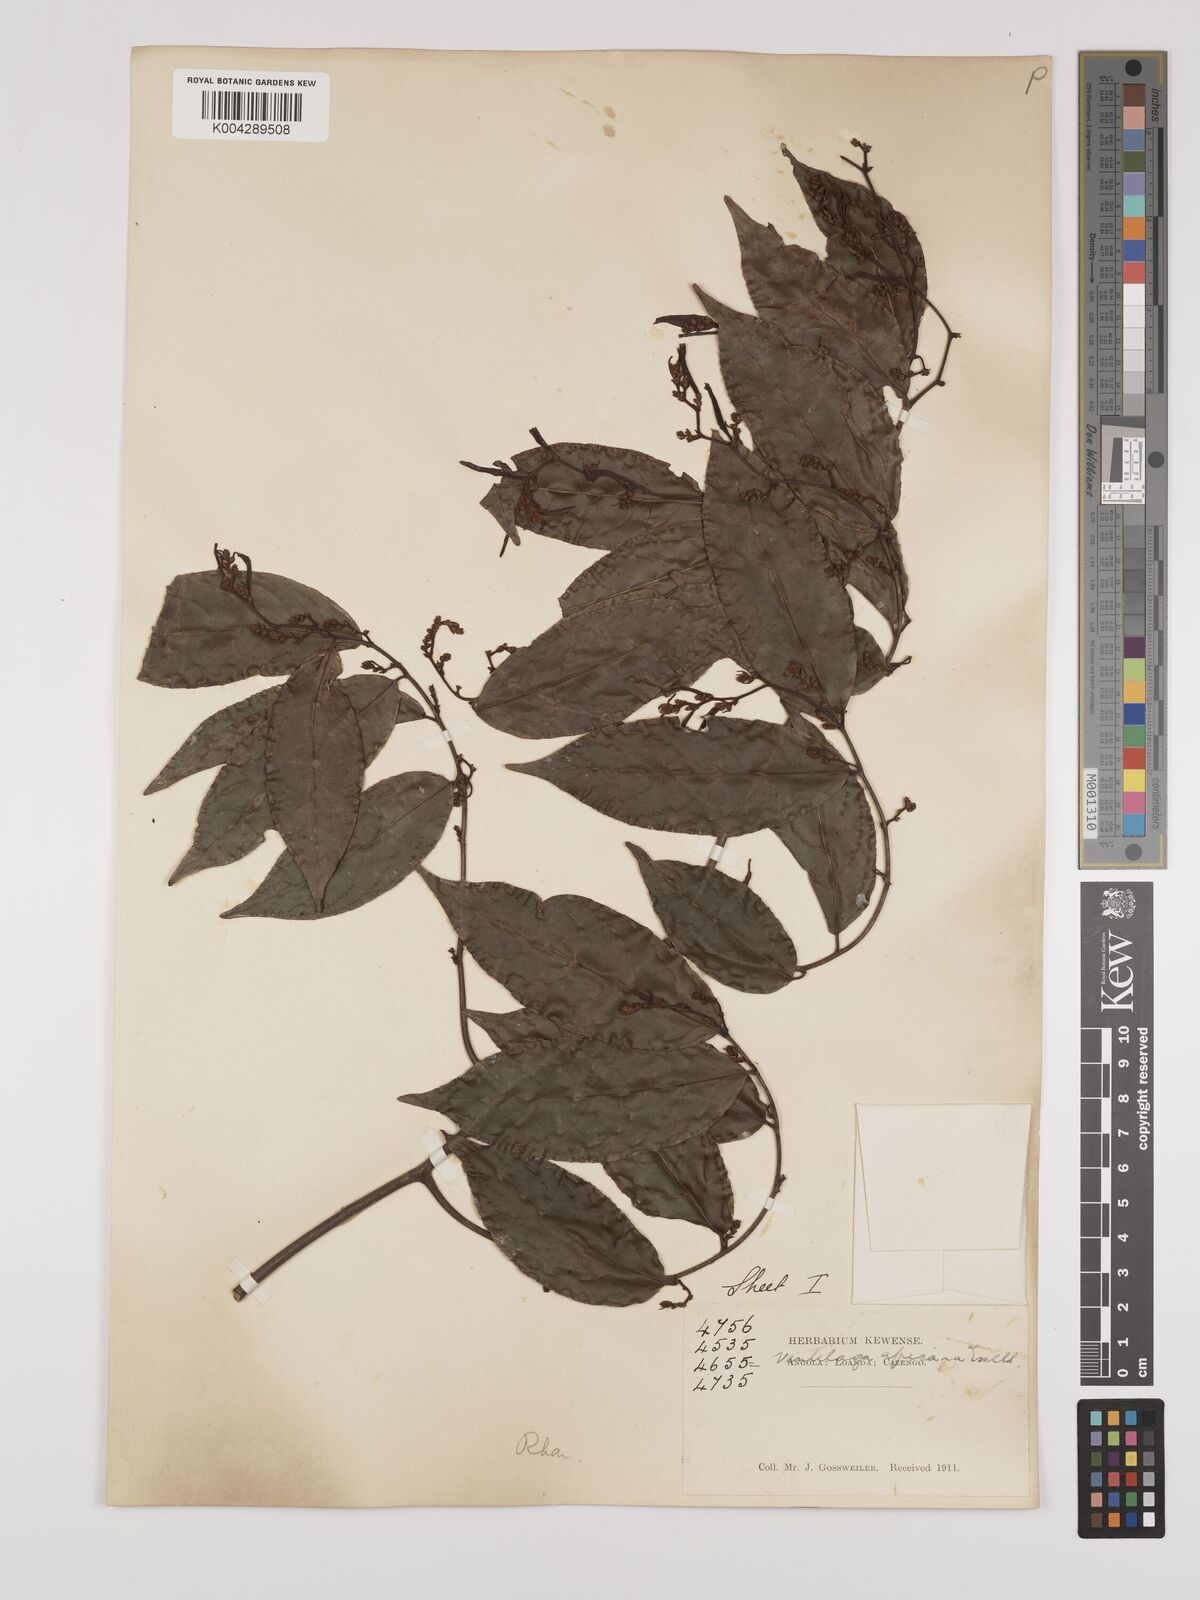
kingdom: Plantae
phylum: Tracheophyta
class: Magnoliopsida
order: Rosales
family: Rhamnaceae
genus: Ventilago
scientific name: Ventilago africana
